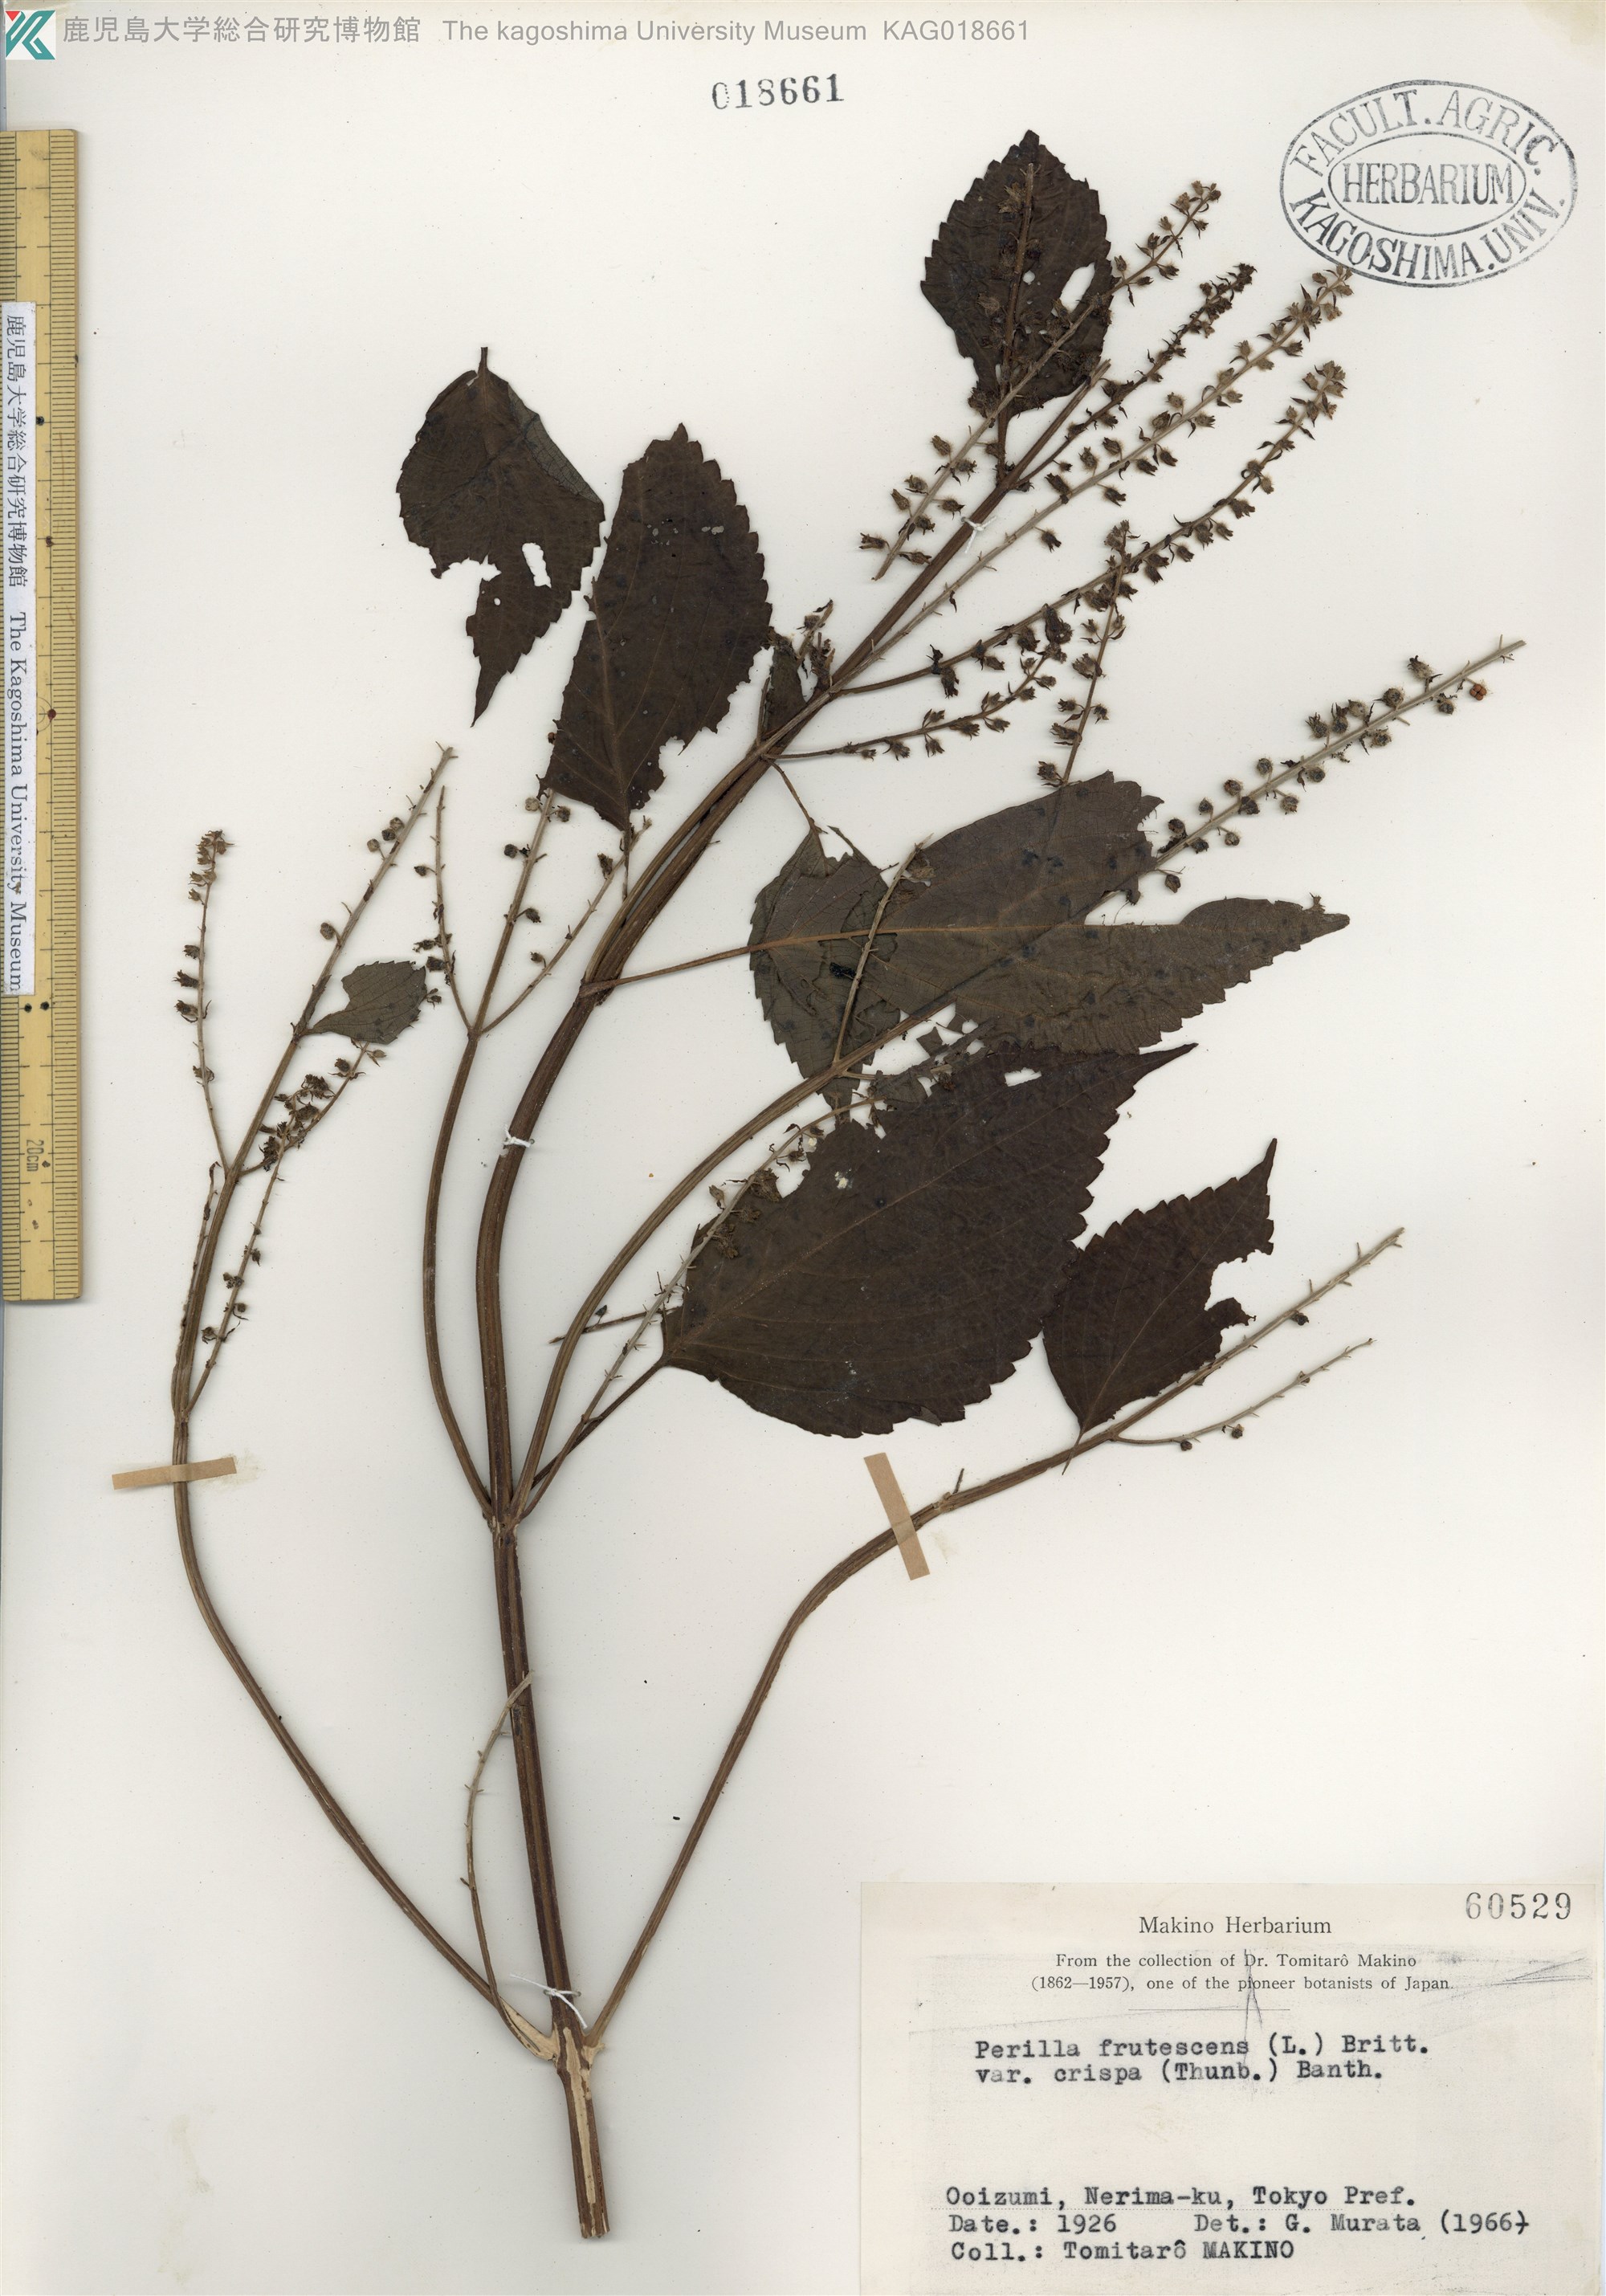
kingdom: Plantae
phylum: Tracheophyta
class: Magnoliopsida
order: Lamiales
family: Lamiaceae
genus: Perilla
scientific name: Perilla frutescens
